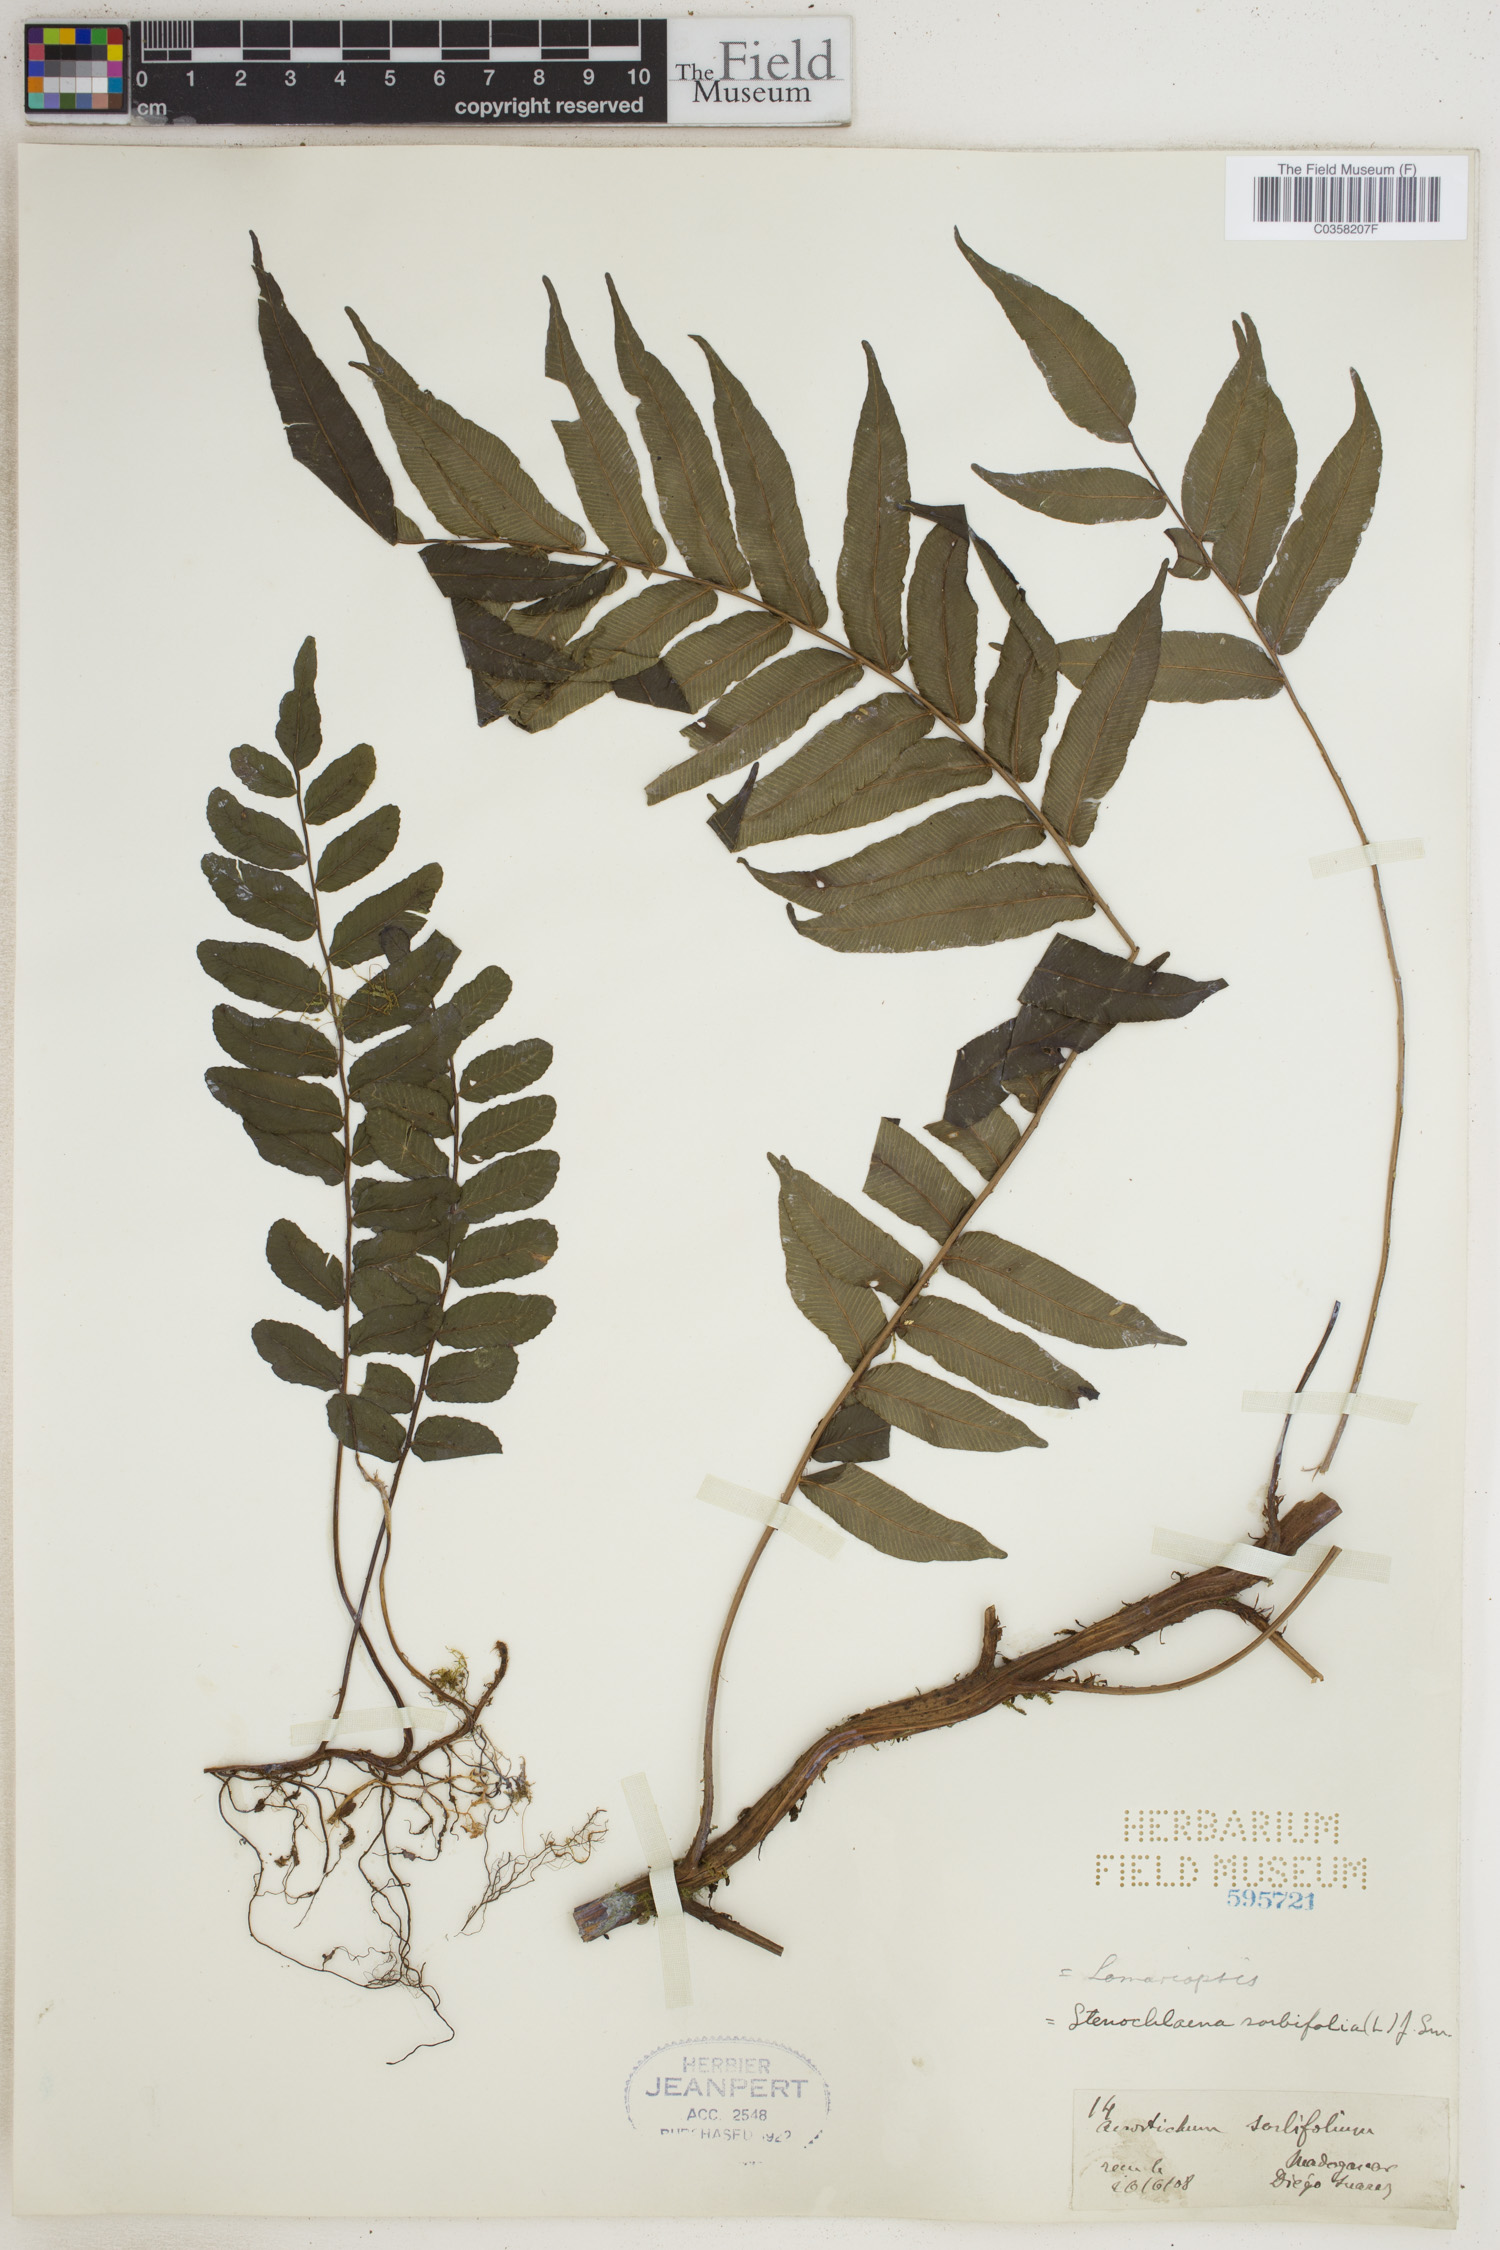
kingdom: Plantae
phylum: Tracheophyta
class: Polypodiopsida
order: Polypodiales
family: Lomariopsidaceae
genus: Lomariopsis
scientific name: Lomariopsis sorbifolia
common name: Acacia fringedfern
